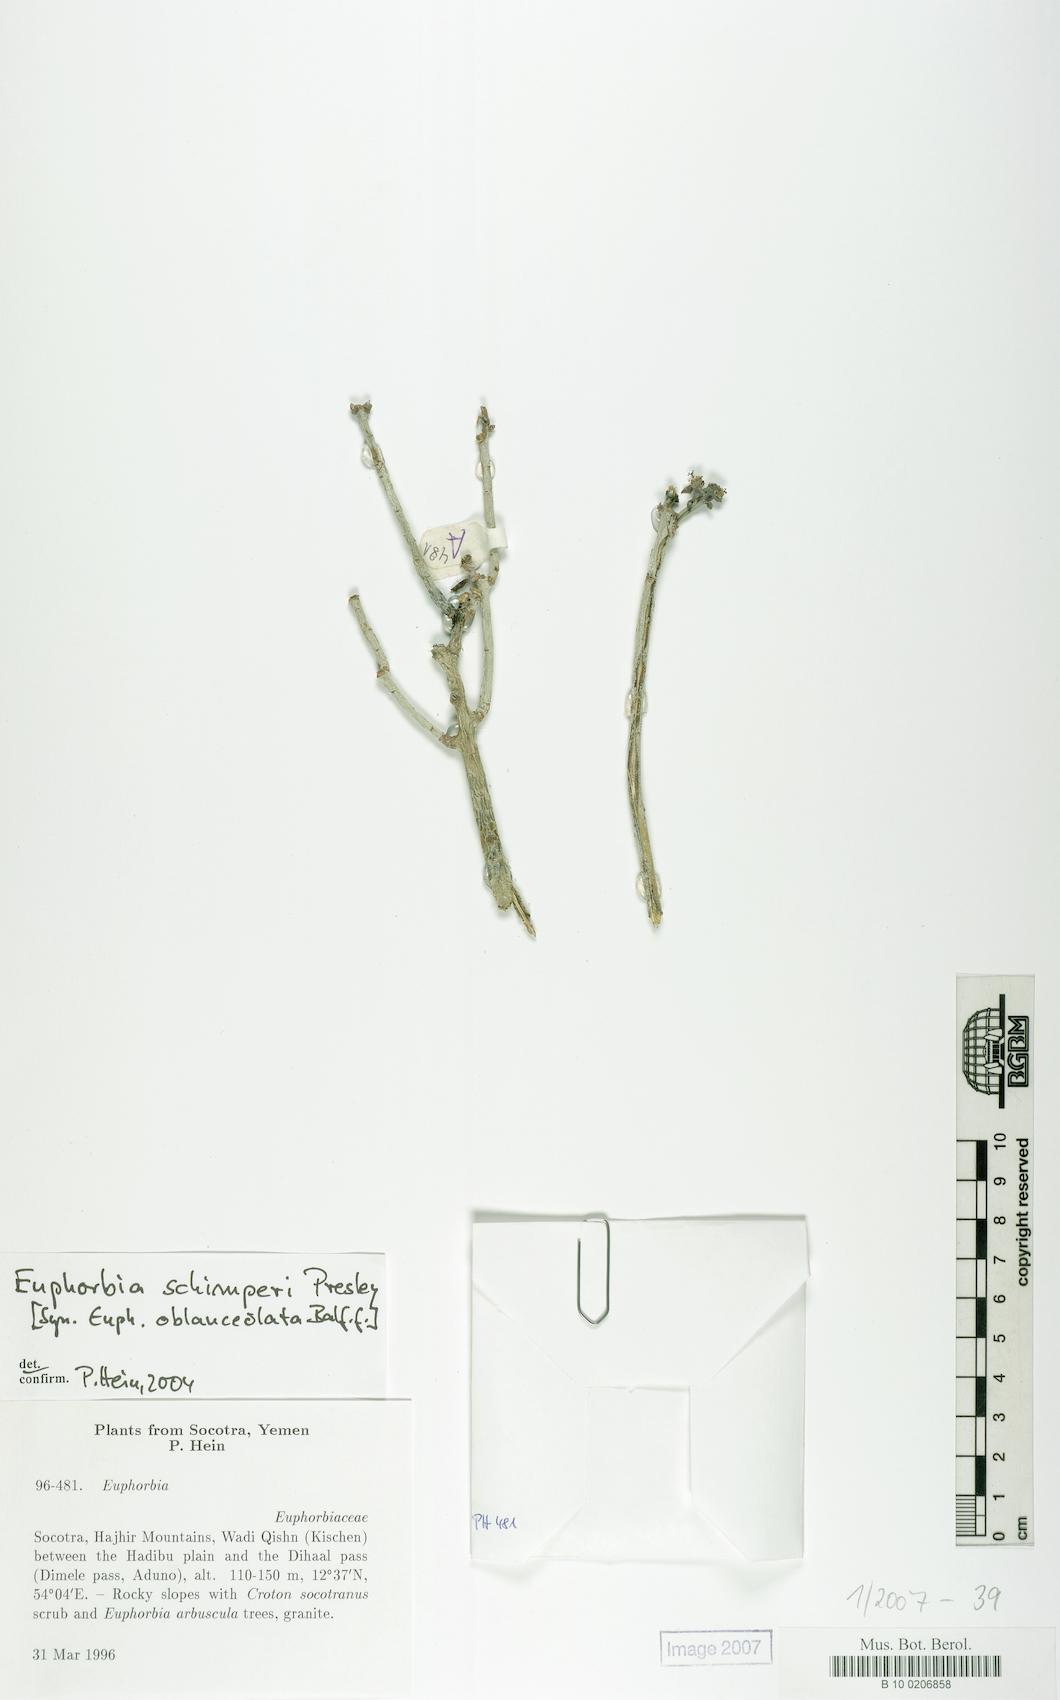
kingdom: Plantae
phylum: Tracheophyta
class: Magnoliopsida
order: Malpighiales
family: Euphorbiaceae
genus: Euphorbia
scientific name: Euphorbia schimperi
